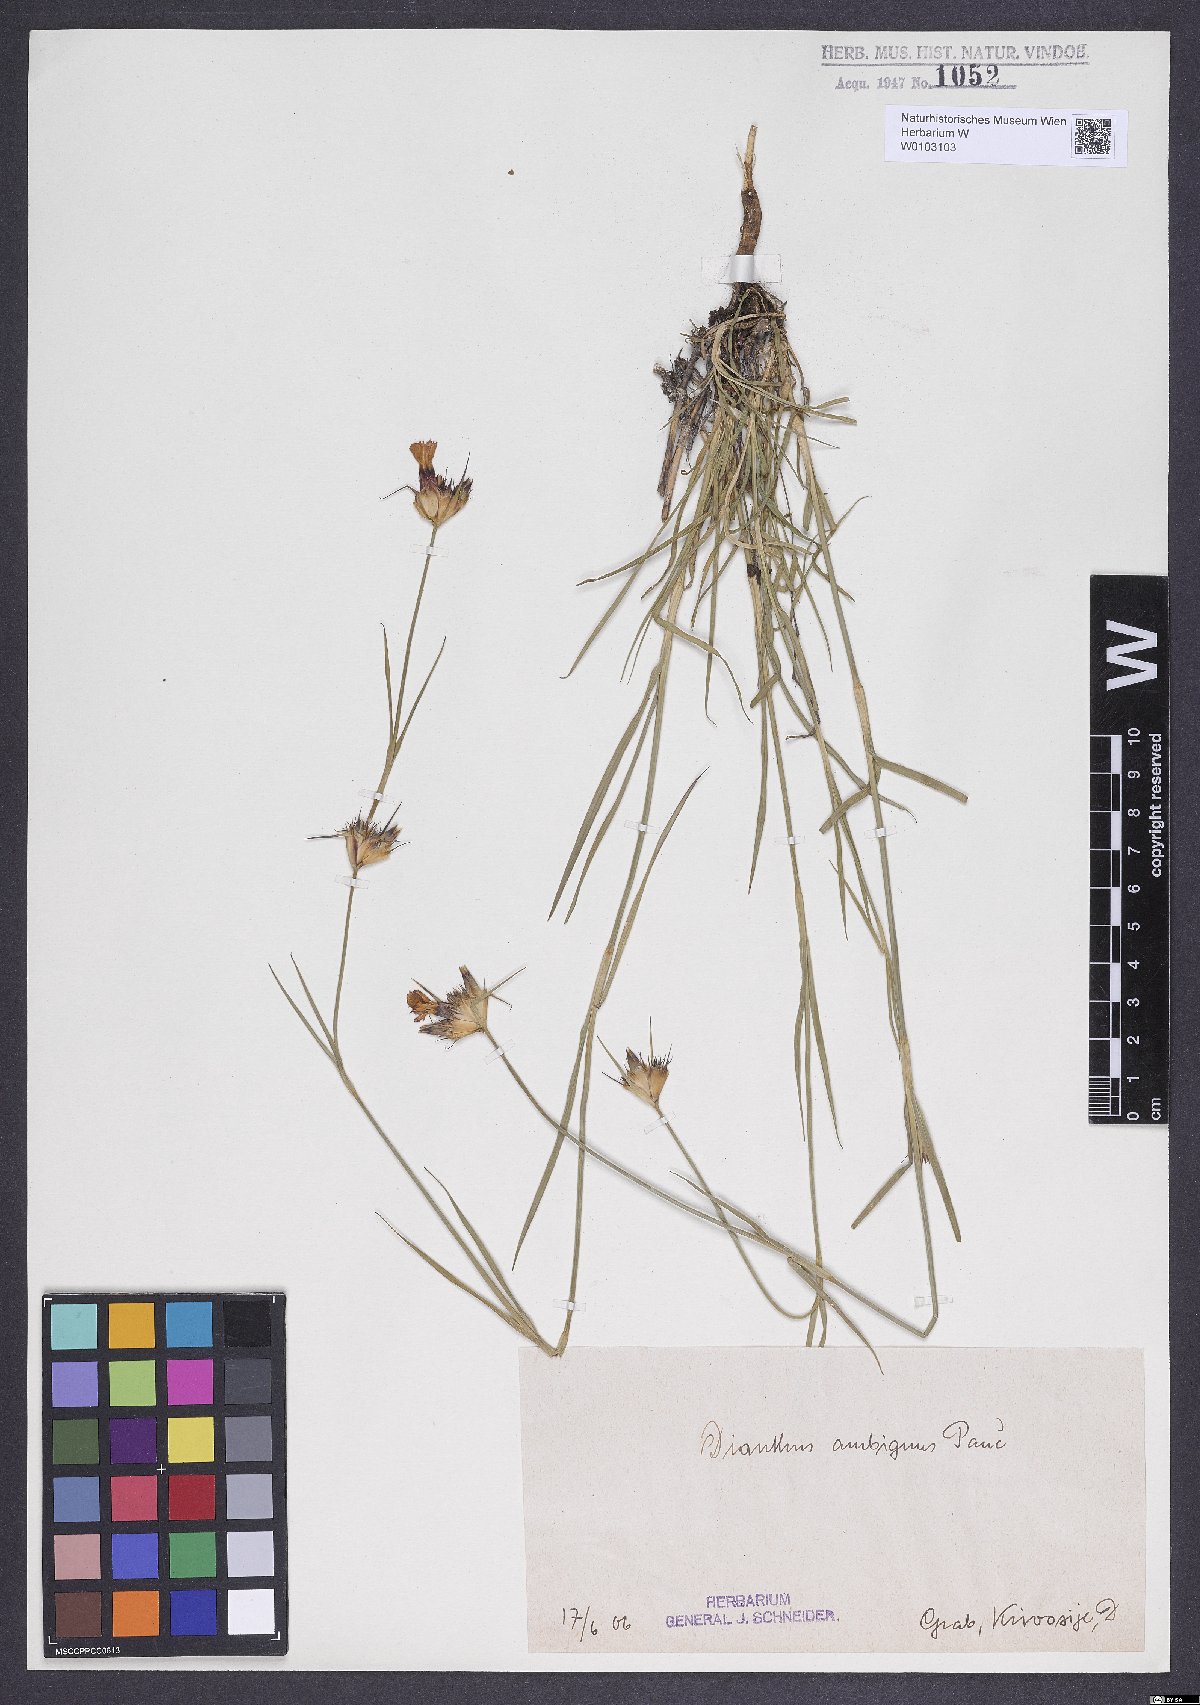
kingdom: Plantae
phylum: Tracheophyta
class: Magnoliopsida
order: Caryophyllales
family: Caryophyllaceae
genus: Dianthus
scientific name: Dianthus cruentus
